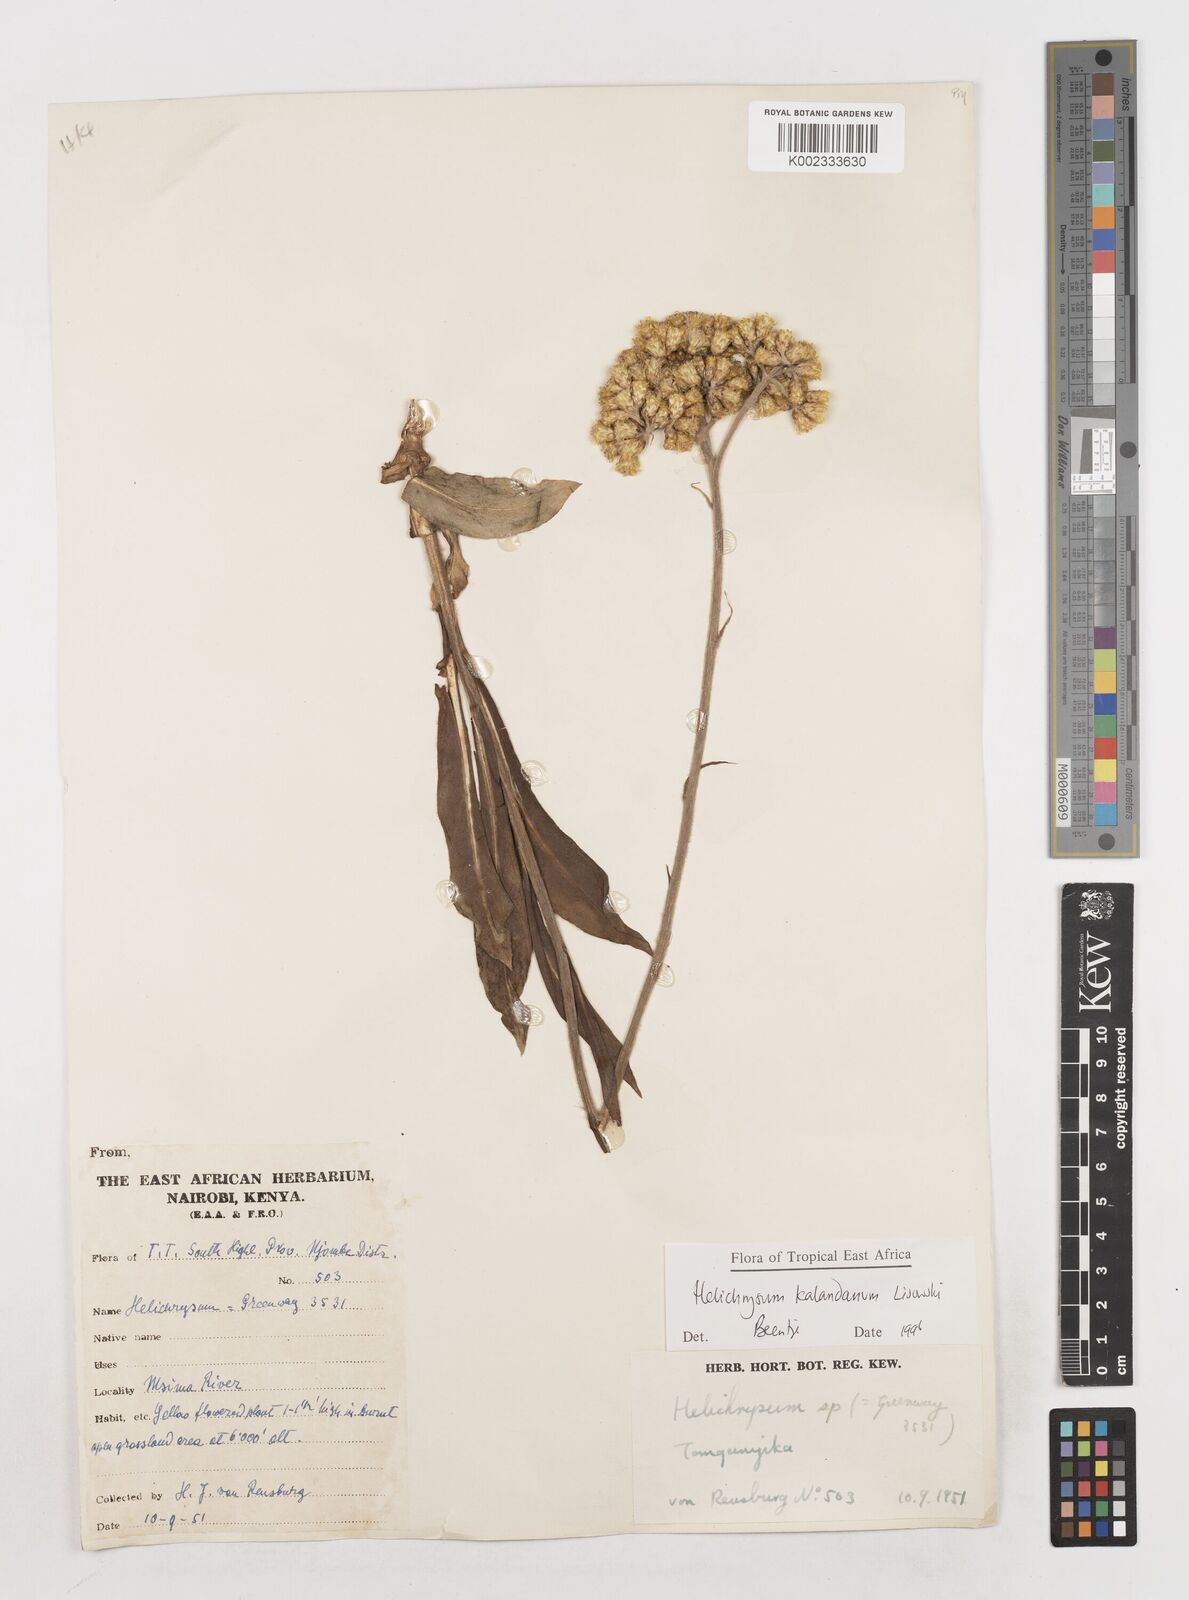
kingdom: Plantae
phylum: Tracheophyta
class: Magnoliopsida
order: Asterales
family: Asteraceae
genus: Helichrysum
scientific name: Helichrysum kalandanum
